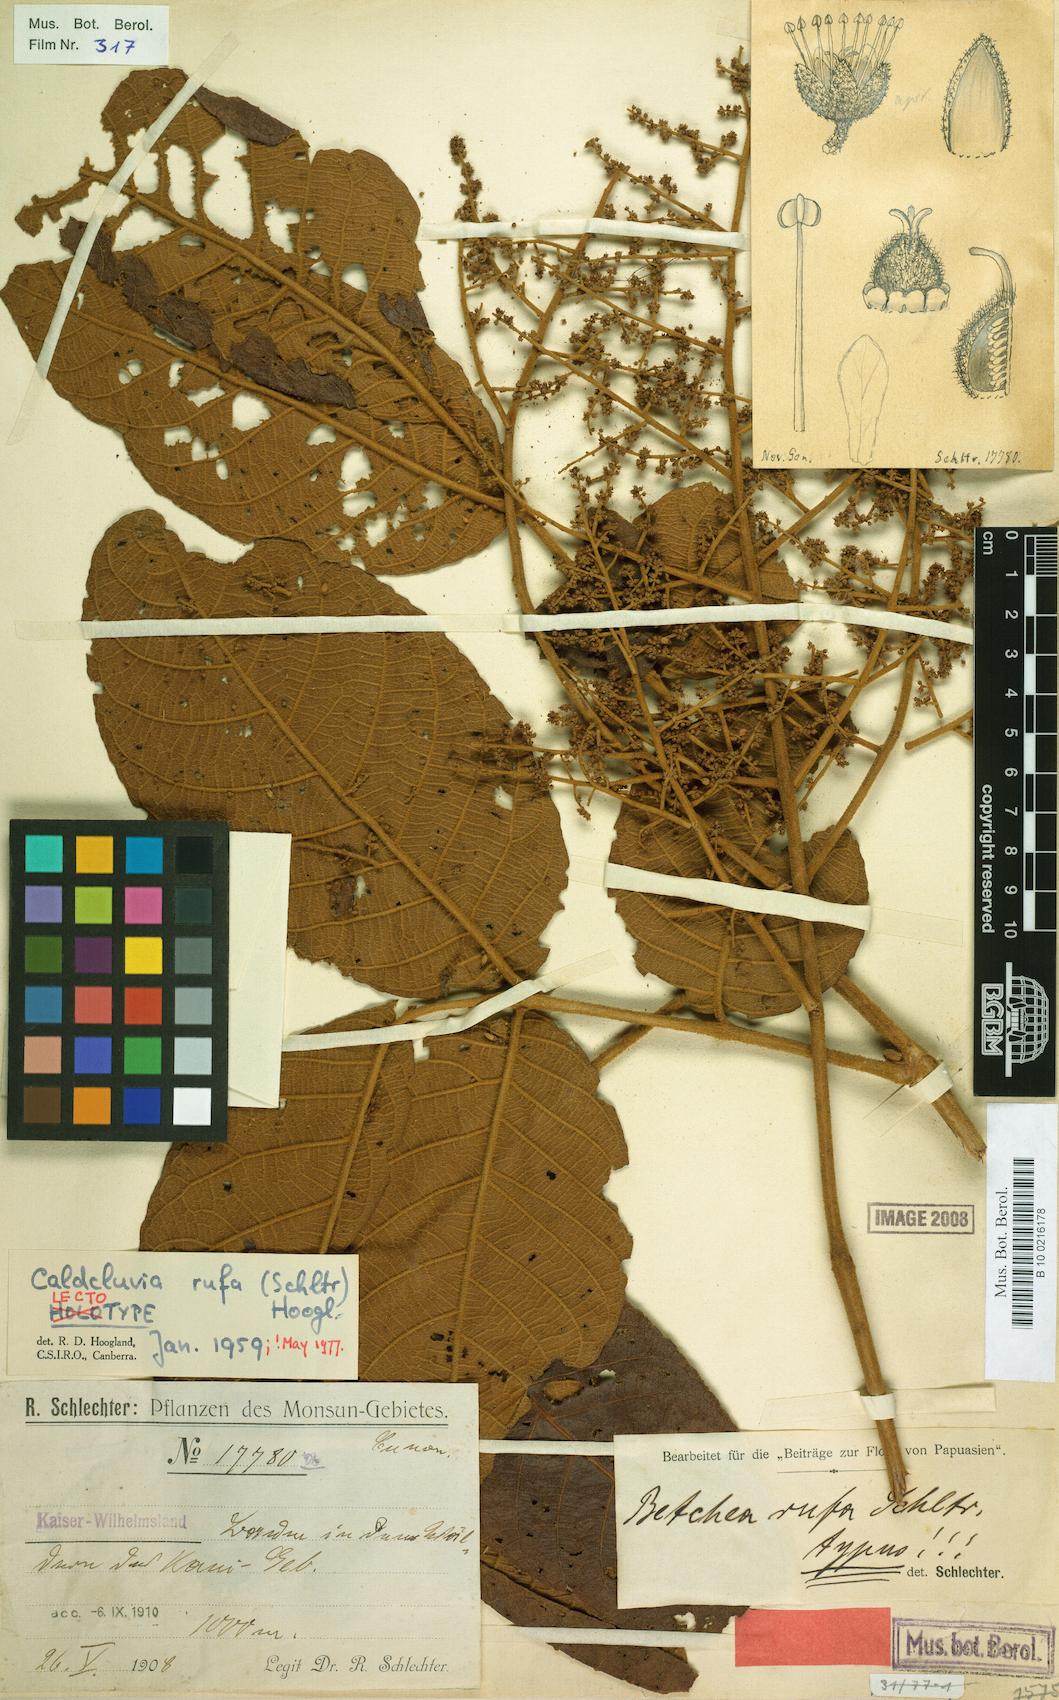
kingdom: Plantae
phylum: Tracheophyta
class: Magnoliopsida
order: Oxalidales
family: Cunoniaceae
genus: Ackama
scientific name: Ackama rufa
